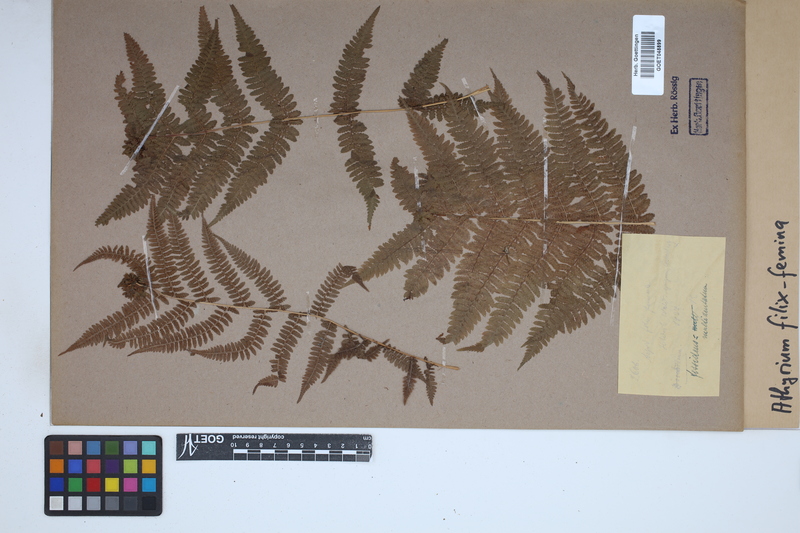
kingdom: Plantae
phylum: Tracheophyta
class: Polypodiopsida
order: Polypodiales
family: Athyriaceae
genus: Athyrium
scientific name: Athyrium filix-femina
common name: Lady fern
